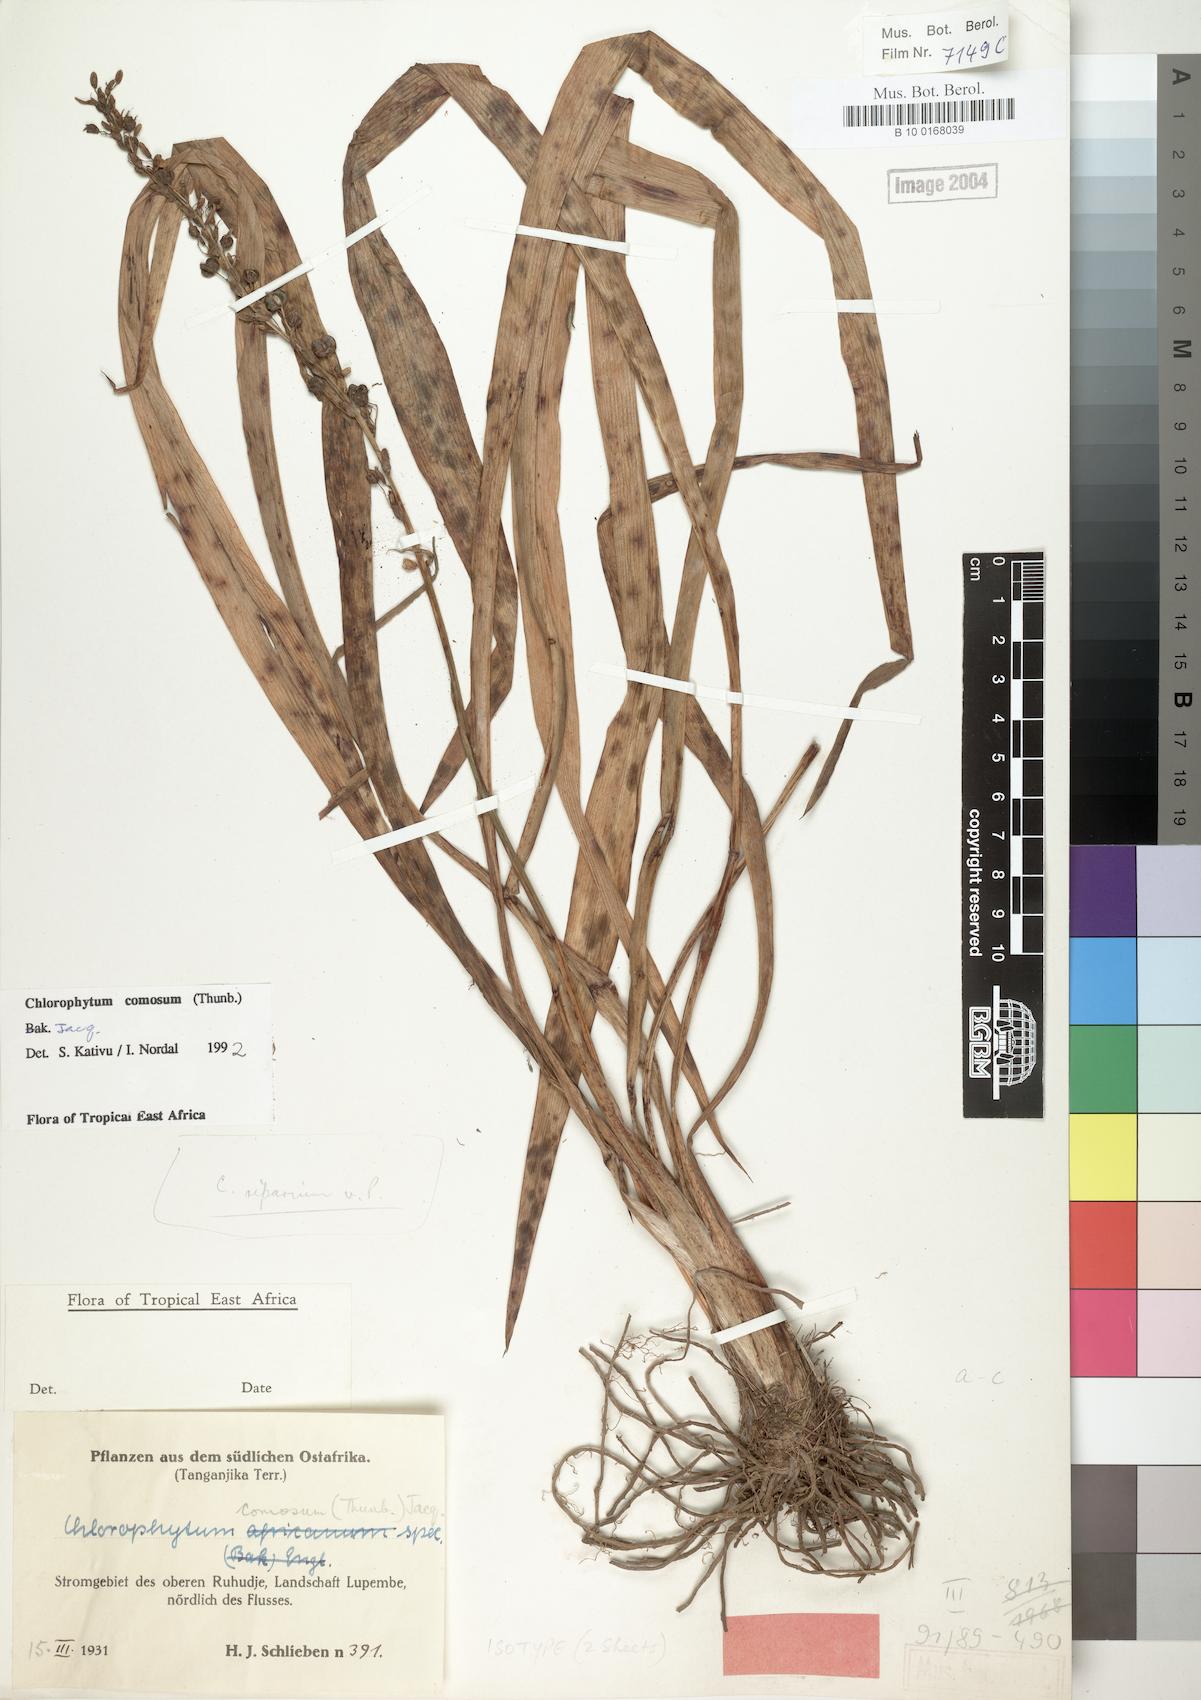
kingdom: Plantae
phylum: Tracheophyta
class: Liliopsida
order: Asparagales
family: Asparagaceae
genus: Chlorophytum
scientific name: Chlorophytum comosum
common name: Spider plant
